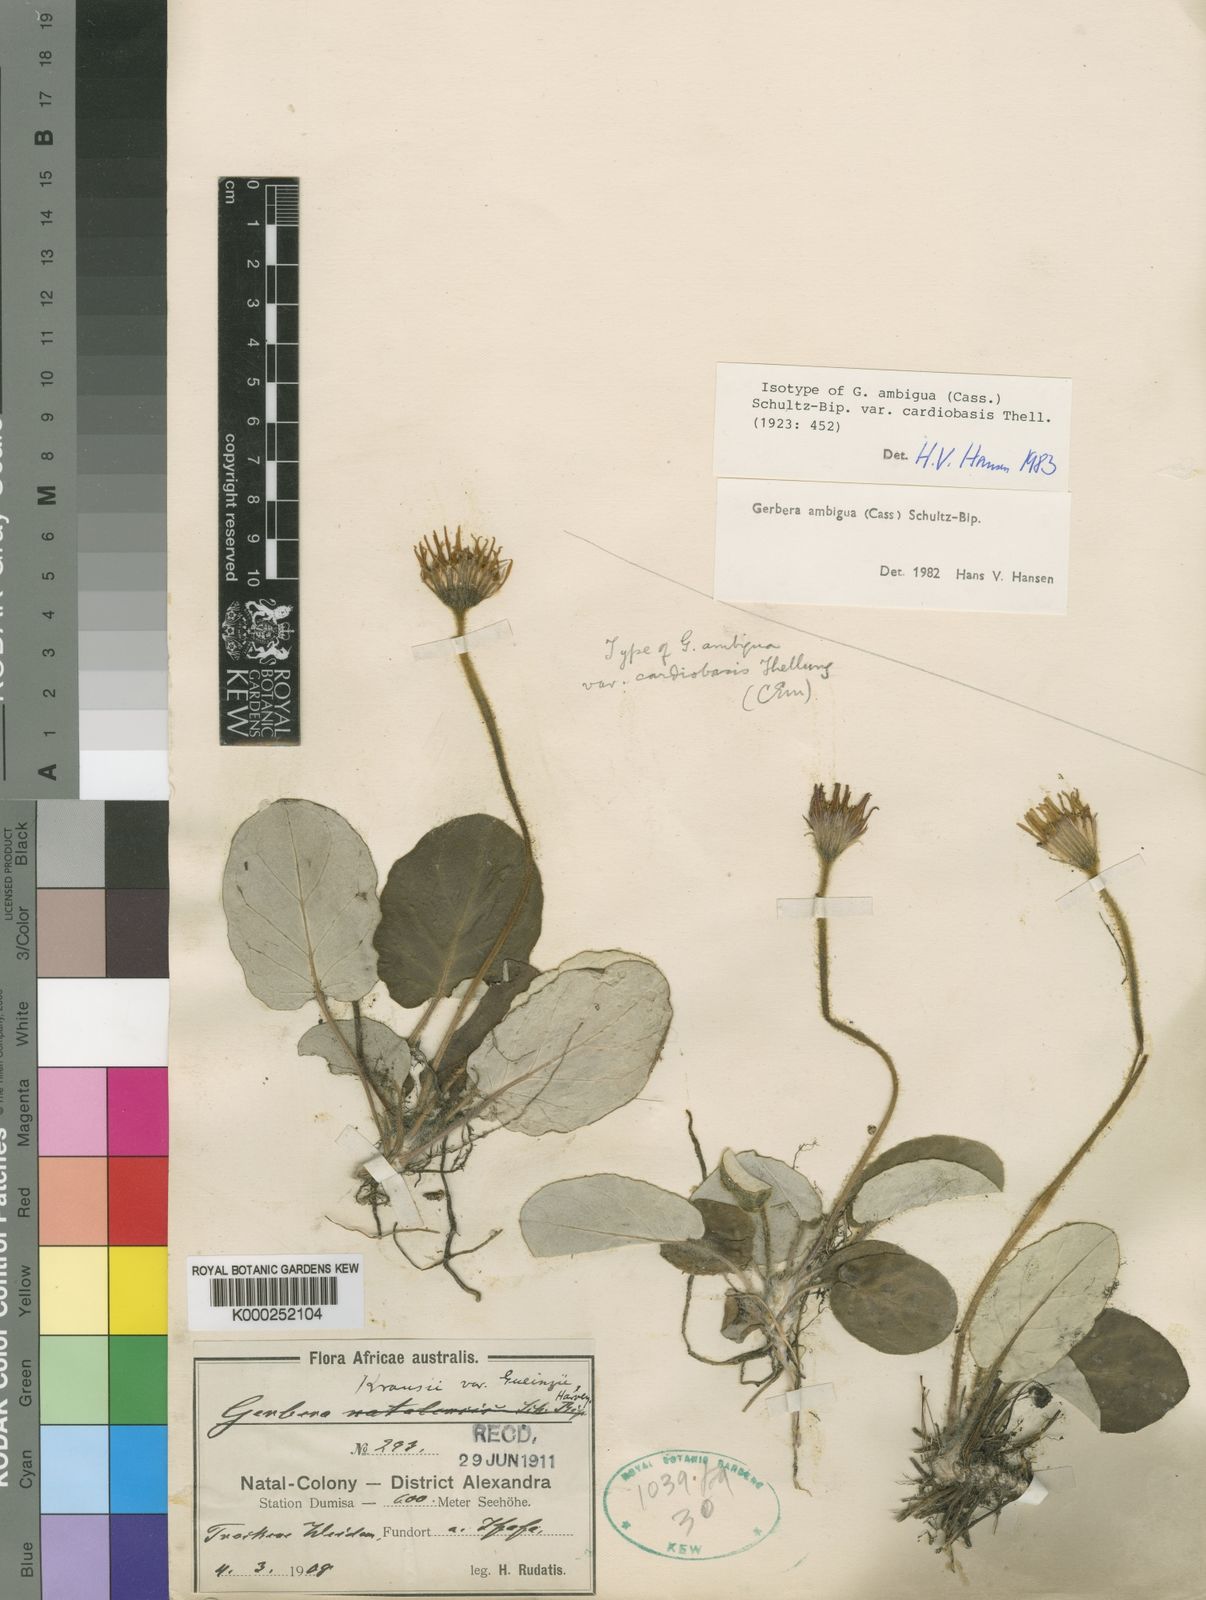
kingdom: Plantae
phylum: Tracheophyta
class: Magnoliopsida
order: Asterales
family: Asteraceae
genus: Gerbera
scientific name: Gerbera ambigua
